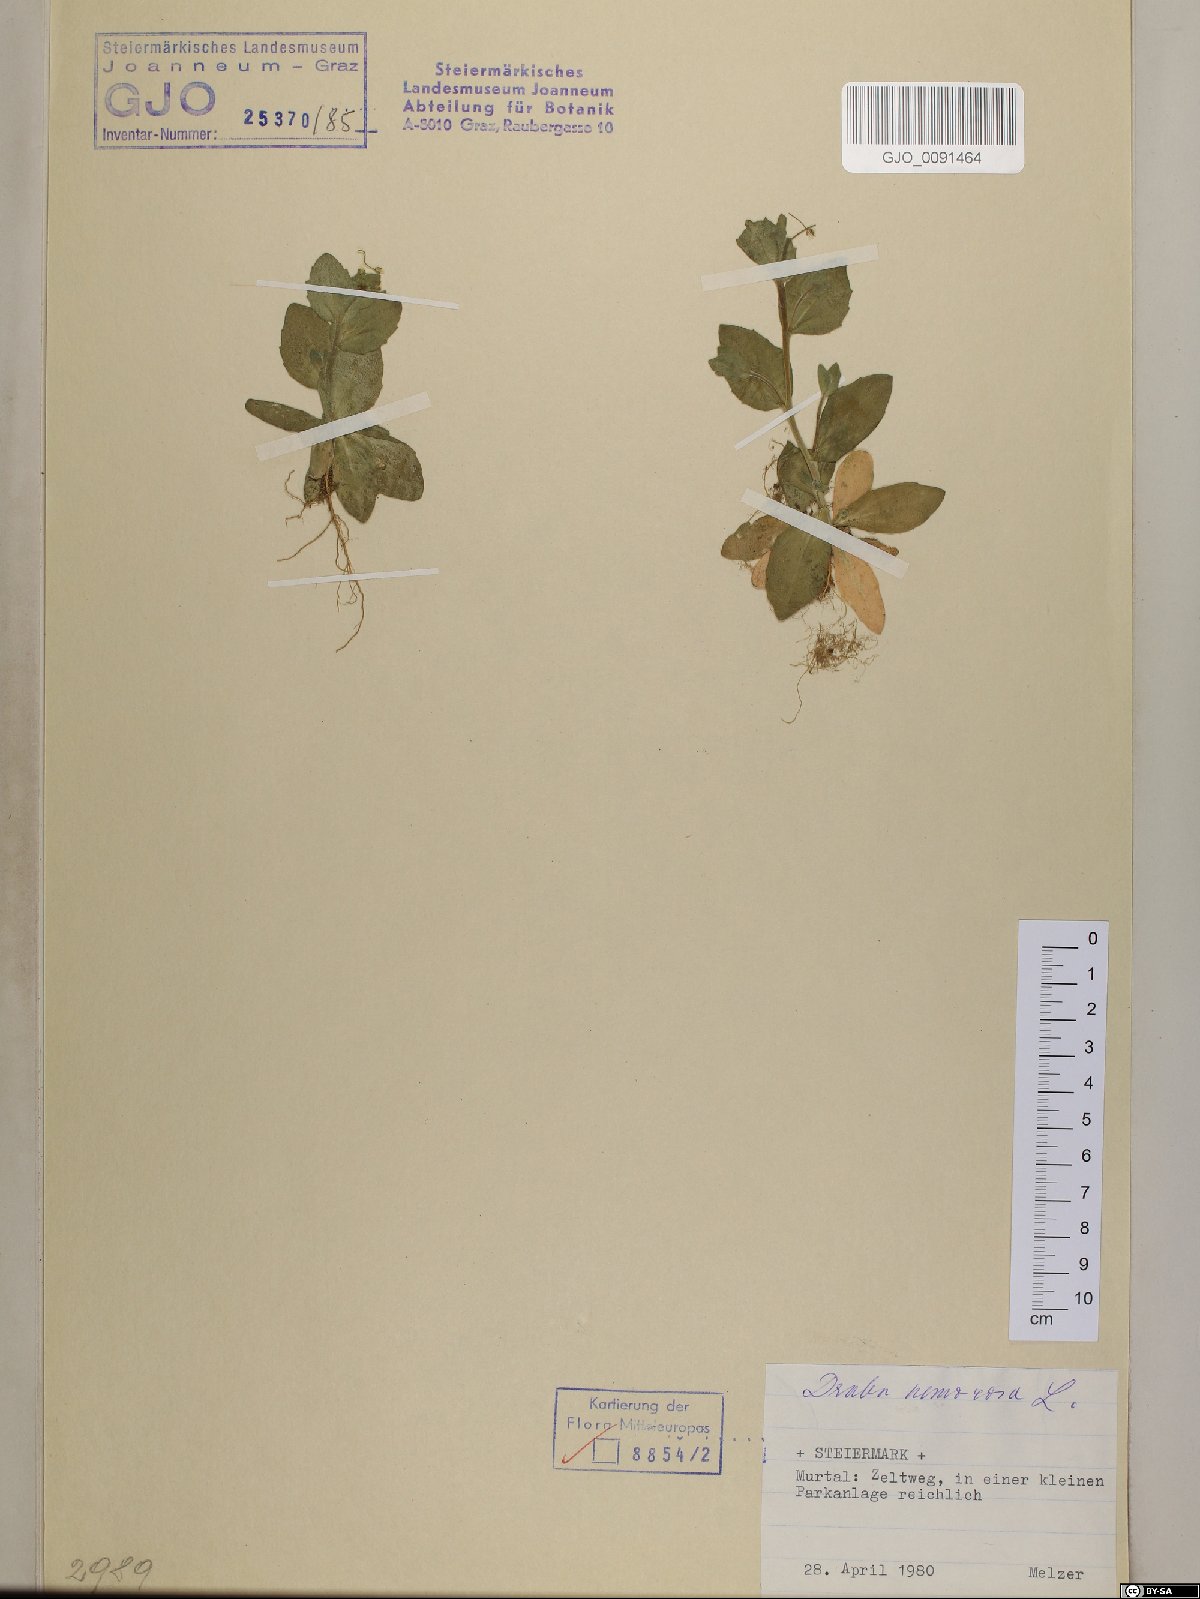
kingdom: Plantae
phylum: Tracheophyta
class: Magnoliopsida
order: Brassicales
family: Brassicaceae
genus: Draba
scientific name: Draba nemorosa
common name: Wood whitlow-grass
